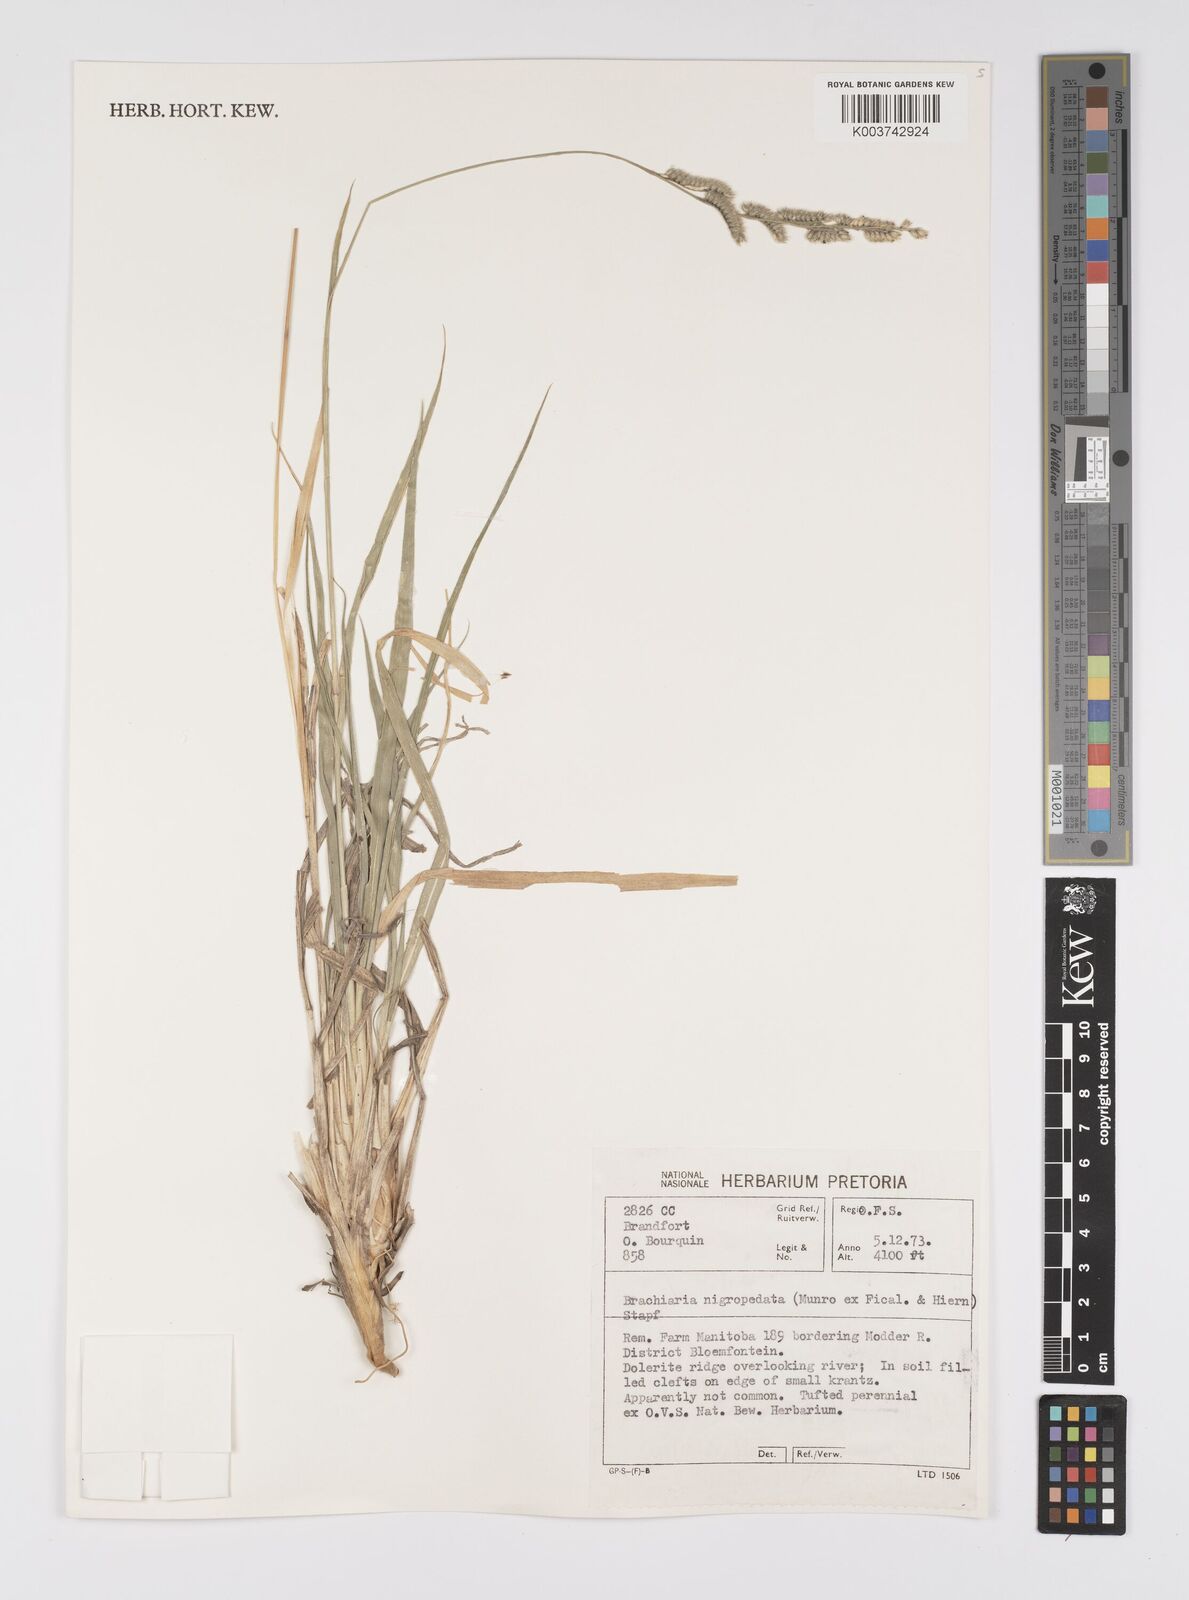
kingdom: Plantae
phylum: Tracheophyta
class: Liliopsida
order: Poales
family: Poaceae
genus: Urochloa
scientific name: Urochloa nigropedata
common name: Spotted signal grass
